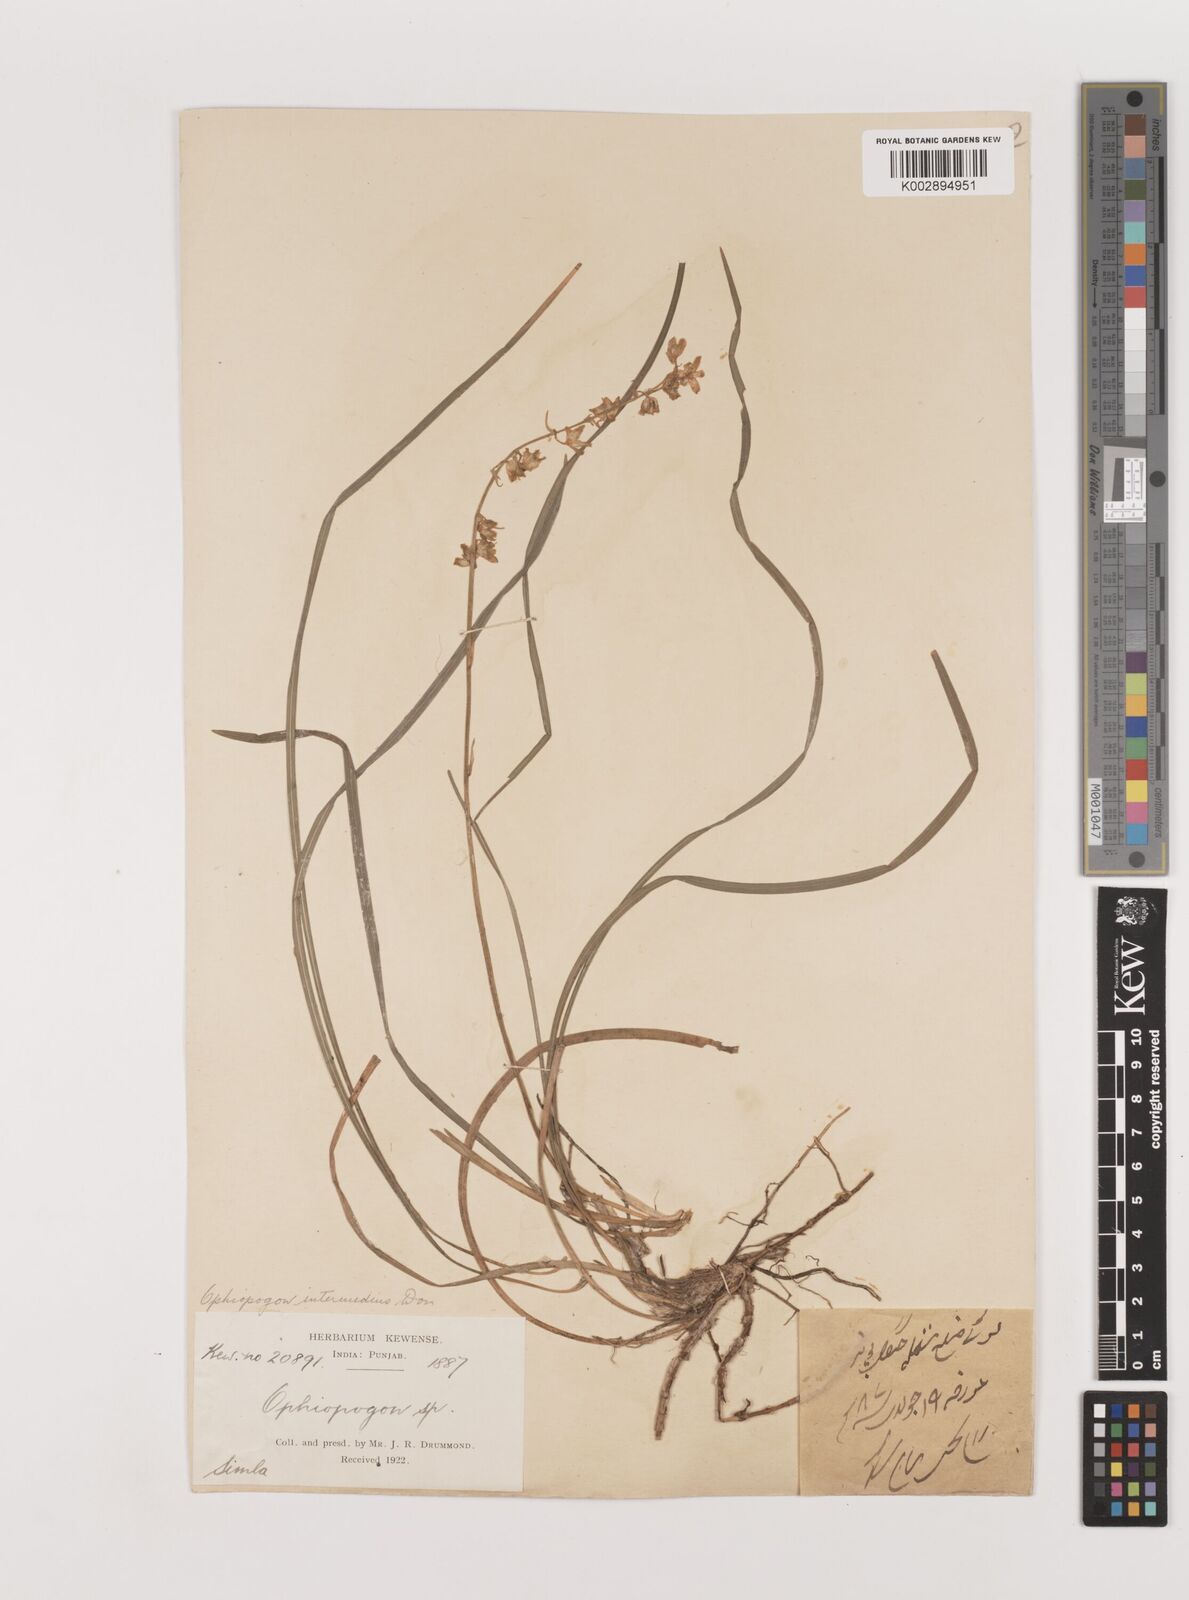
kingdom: Plantae
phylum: Tracheophyta
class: Liliopsida
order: Asparagales
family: Asparagaceae
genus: Ophiopogon
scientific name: Ophiopogon intermedius
